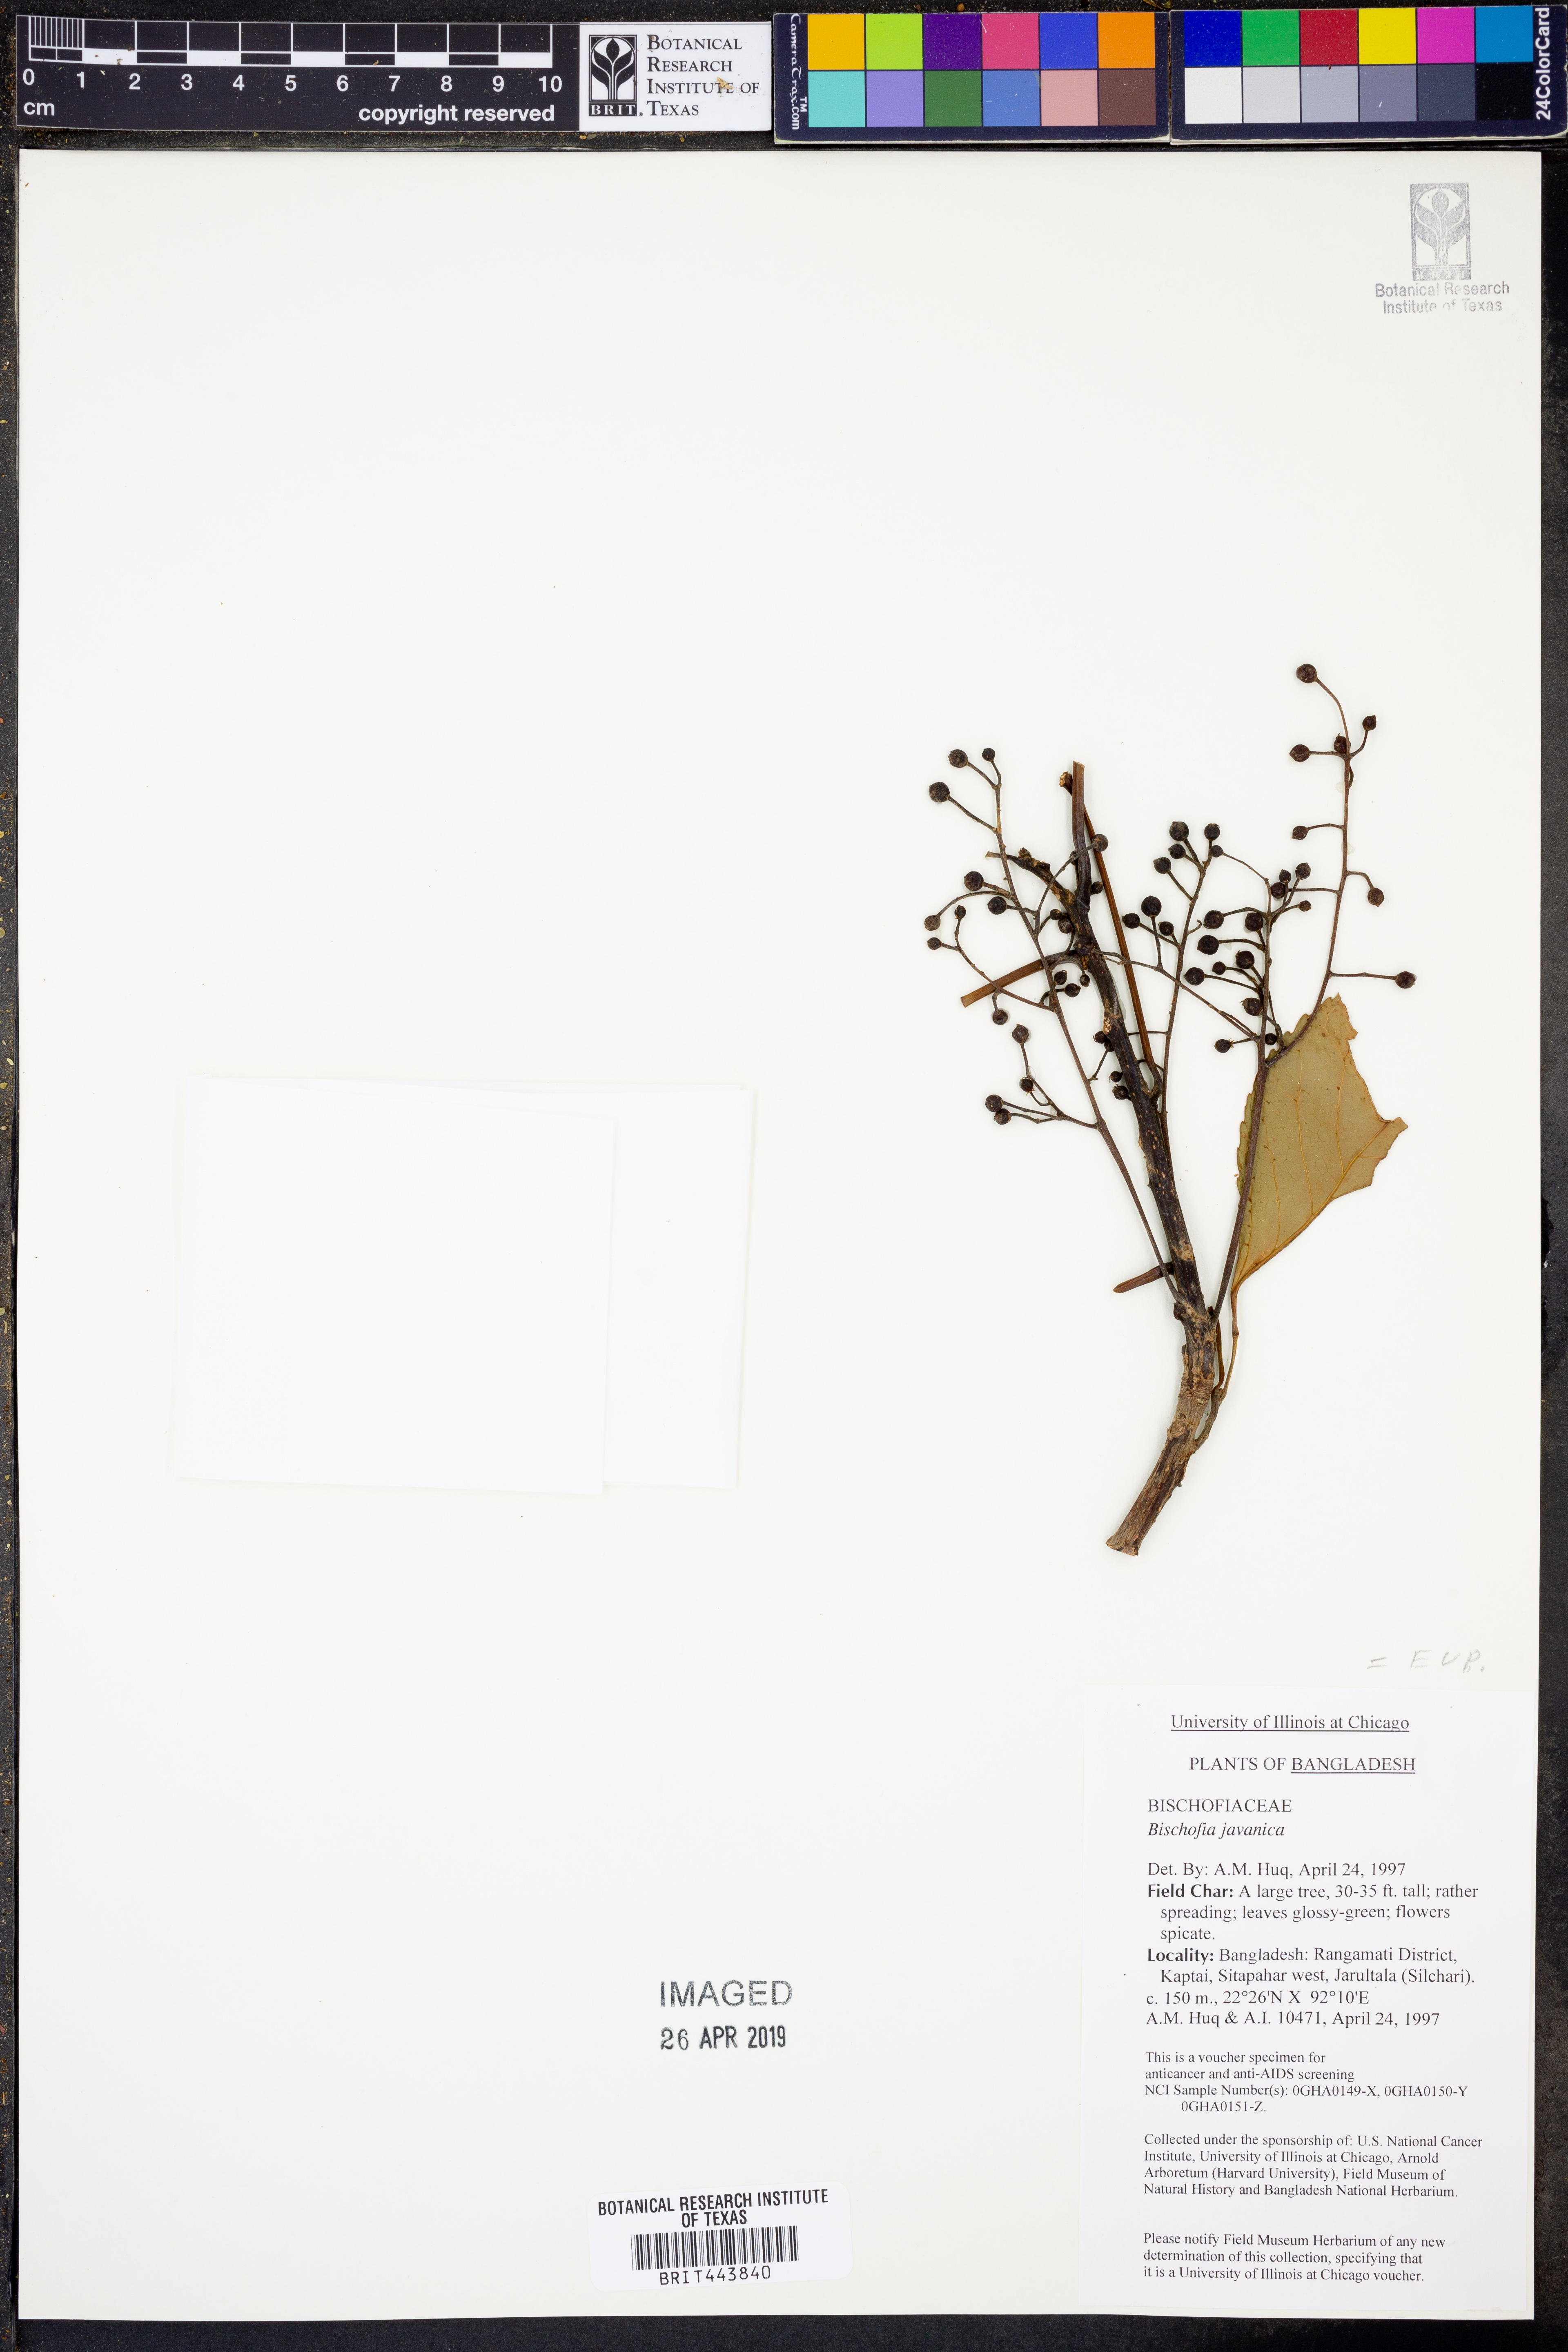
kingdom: Plantae
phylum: Tracheophyta
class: Magnoliopsida
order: Malpighiales
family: Phyllanthaceae
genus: Bischofia
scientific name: Bischofia javanica
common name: Javanese bishopwood
